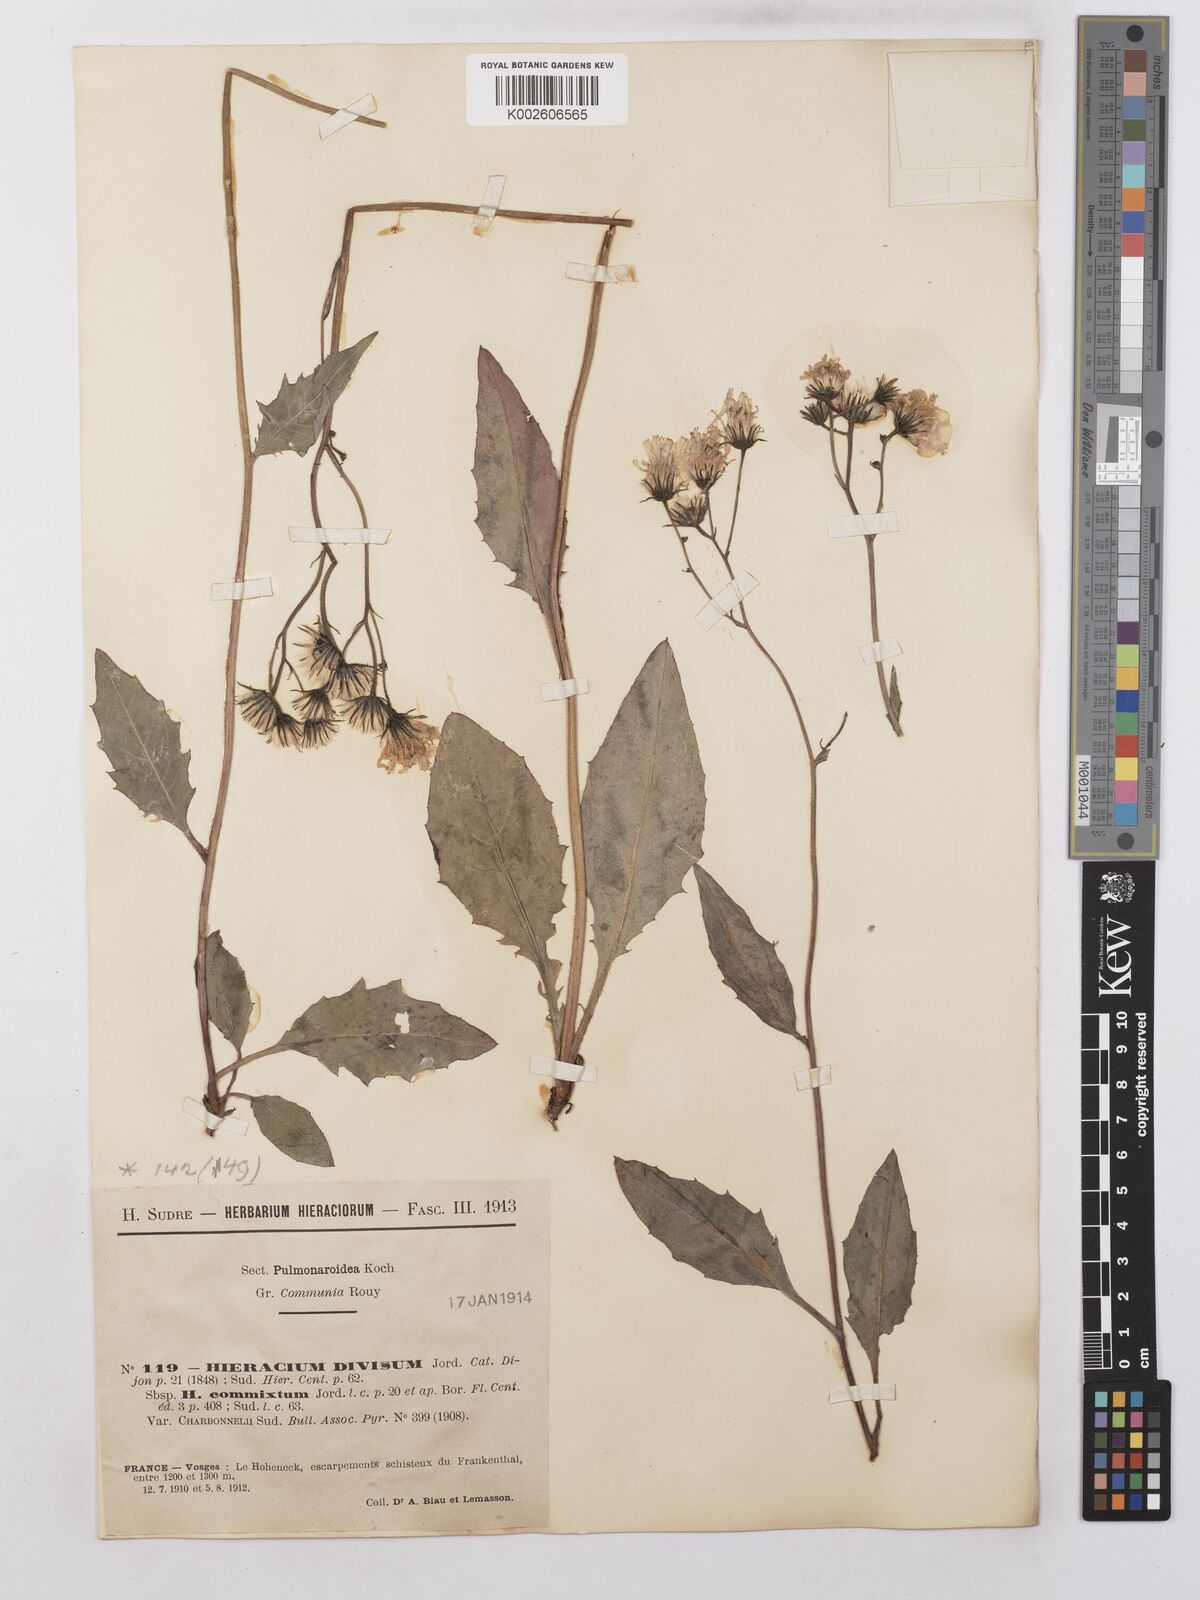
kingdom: Plantae
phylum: Tracheophyta
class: Magnoliopsida
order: Asterales
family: Asteraceae
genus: Hieracium
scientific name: Hieracium lachenalii
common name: Common hawkweed
